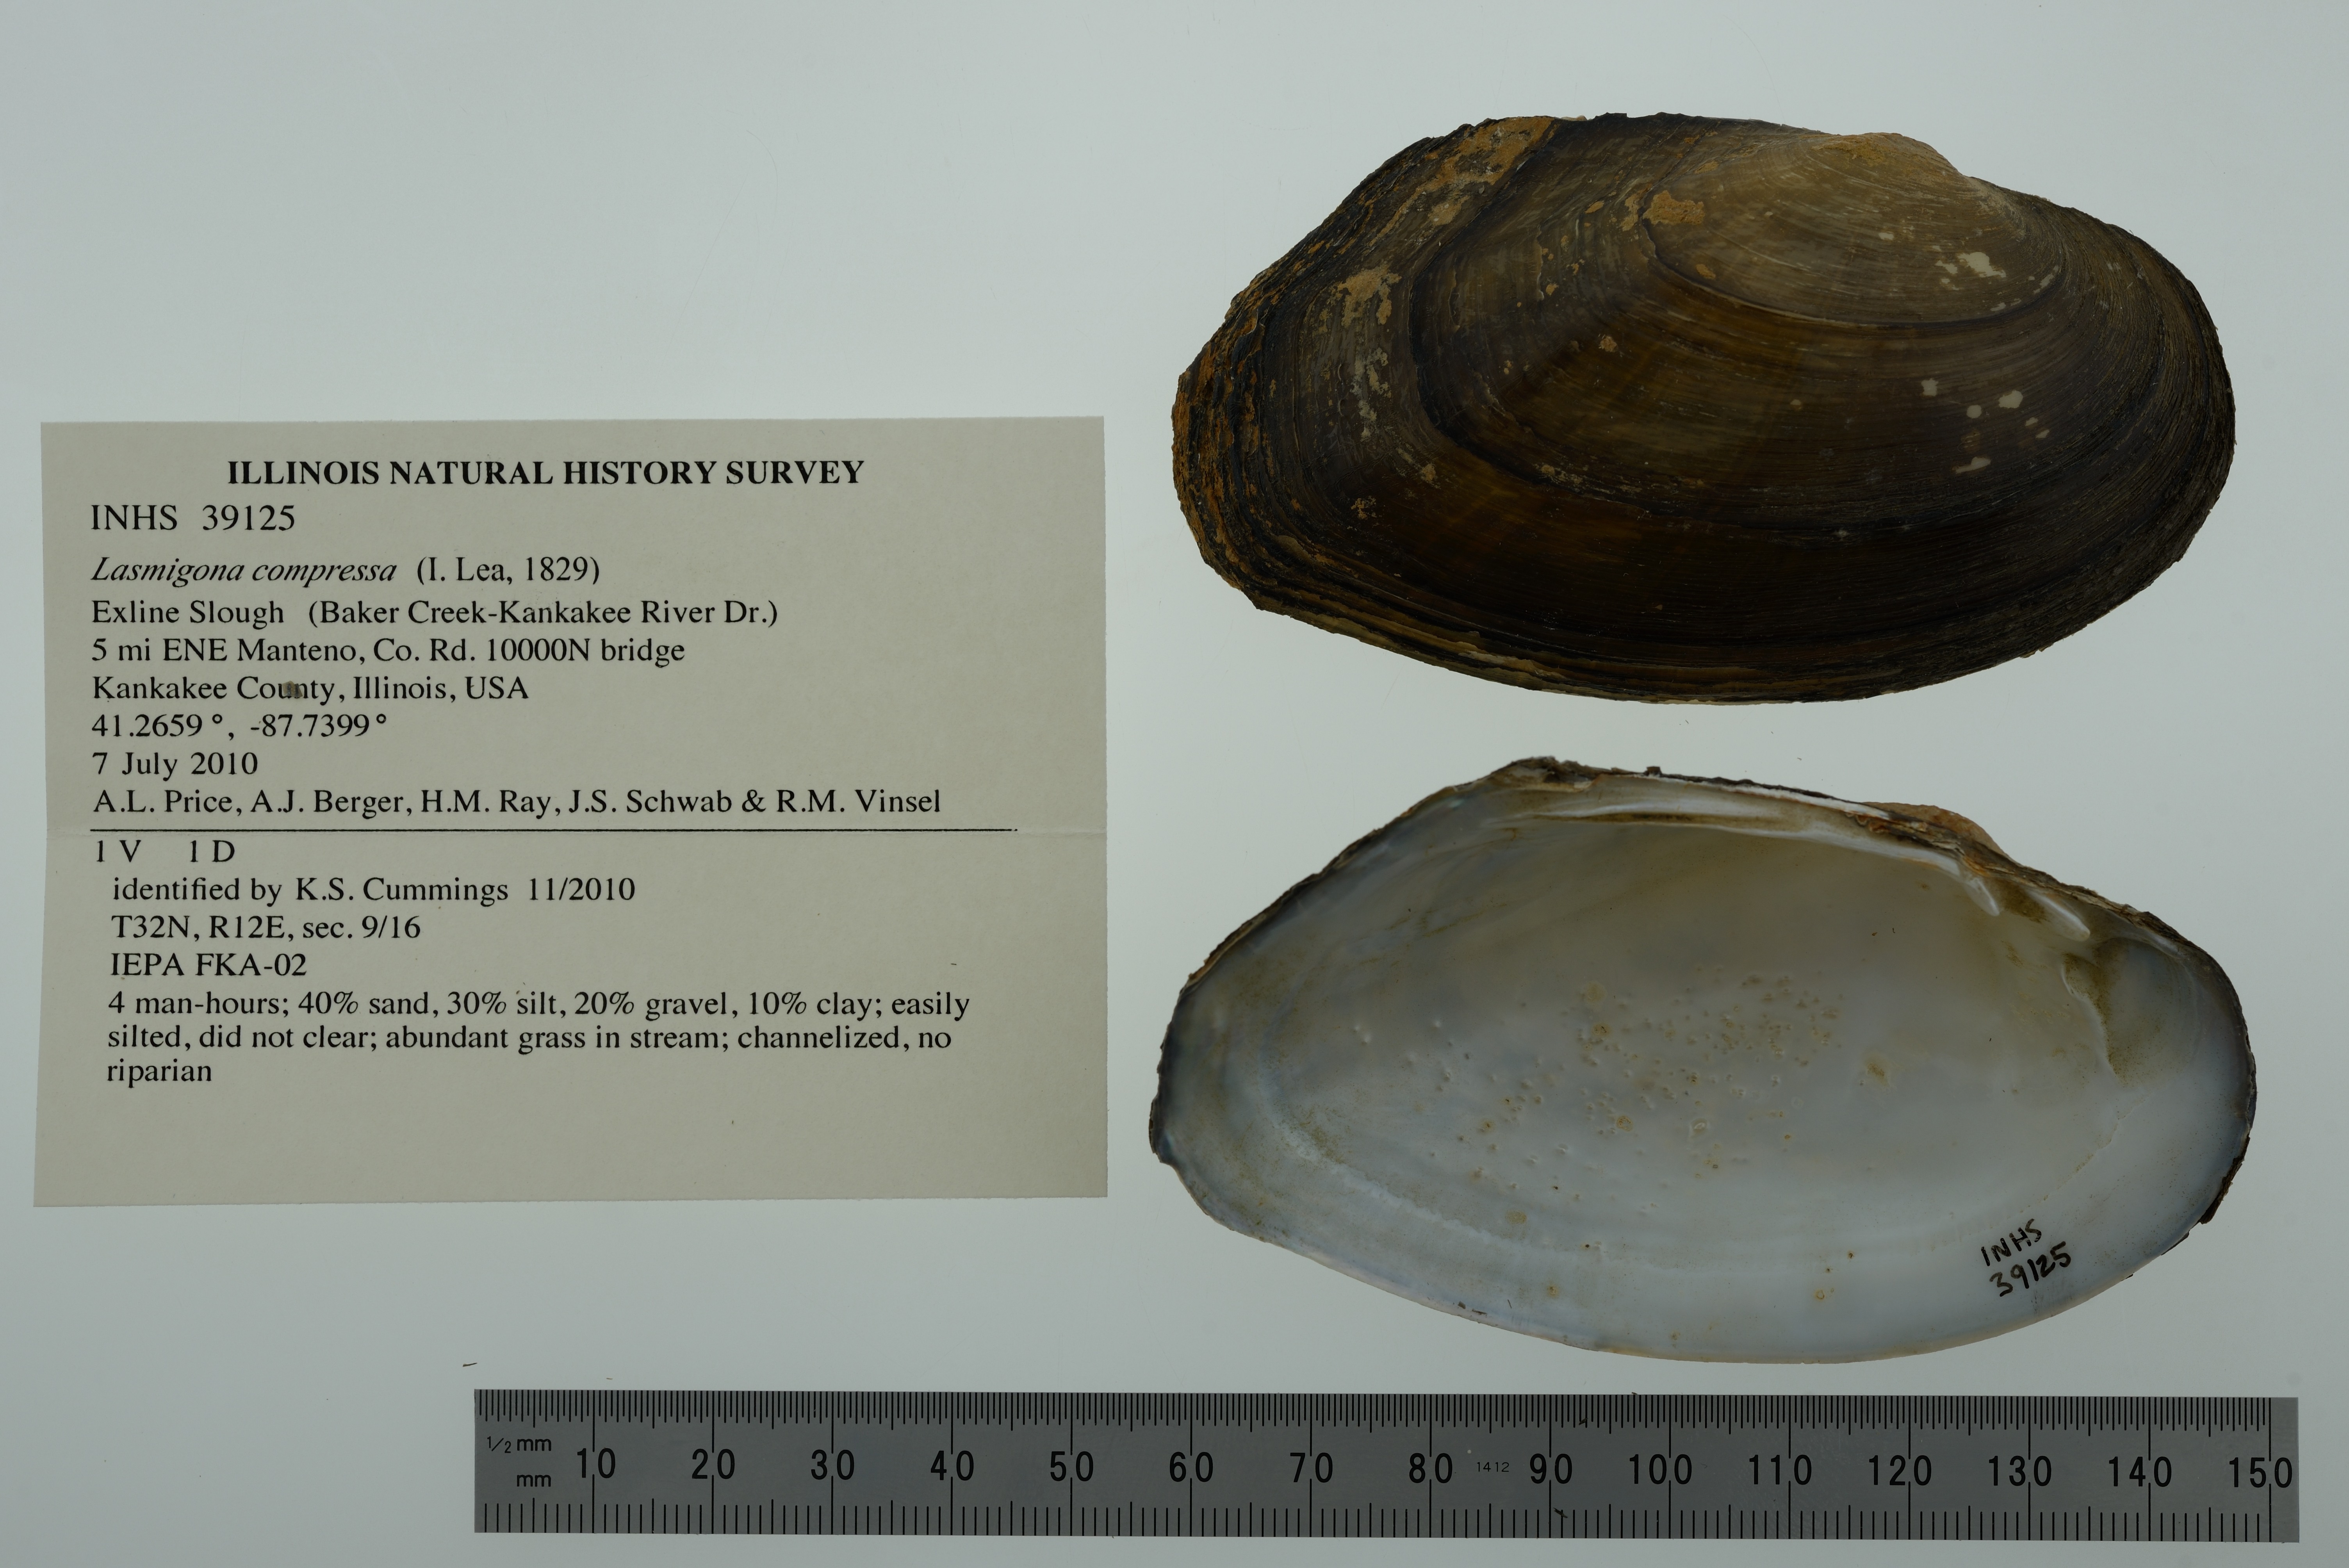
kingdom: Animalia
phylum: Mollusca
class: Bivalvia
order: Unionida
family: Unionidae
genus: Lasmigona
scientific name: Lasmigona compressa
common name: Creek heelsplitter
